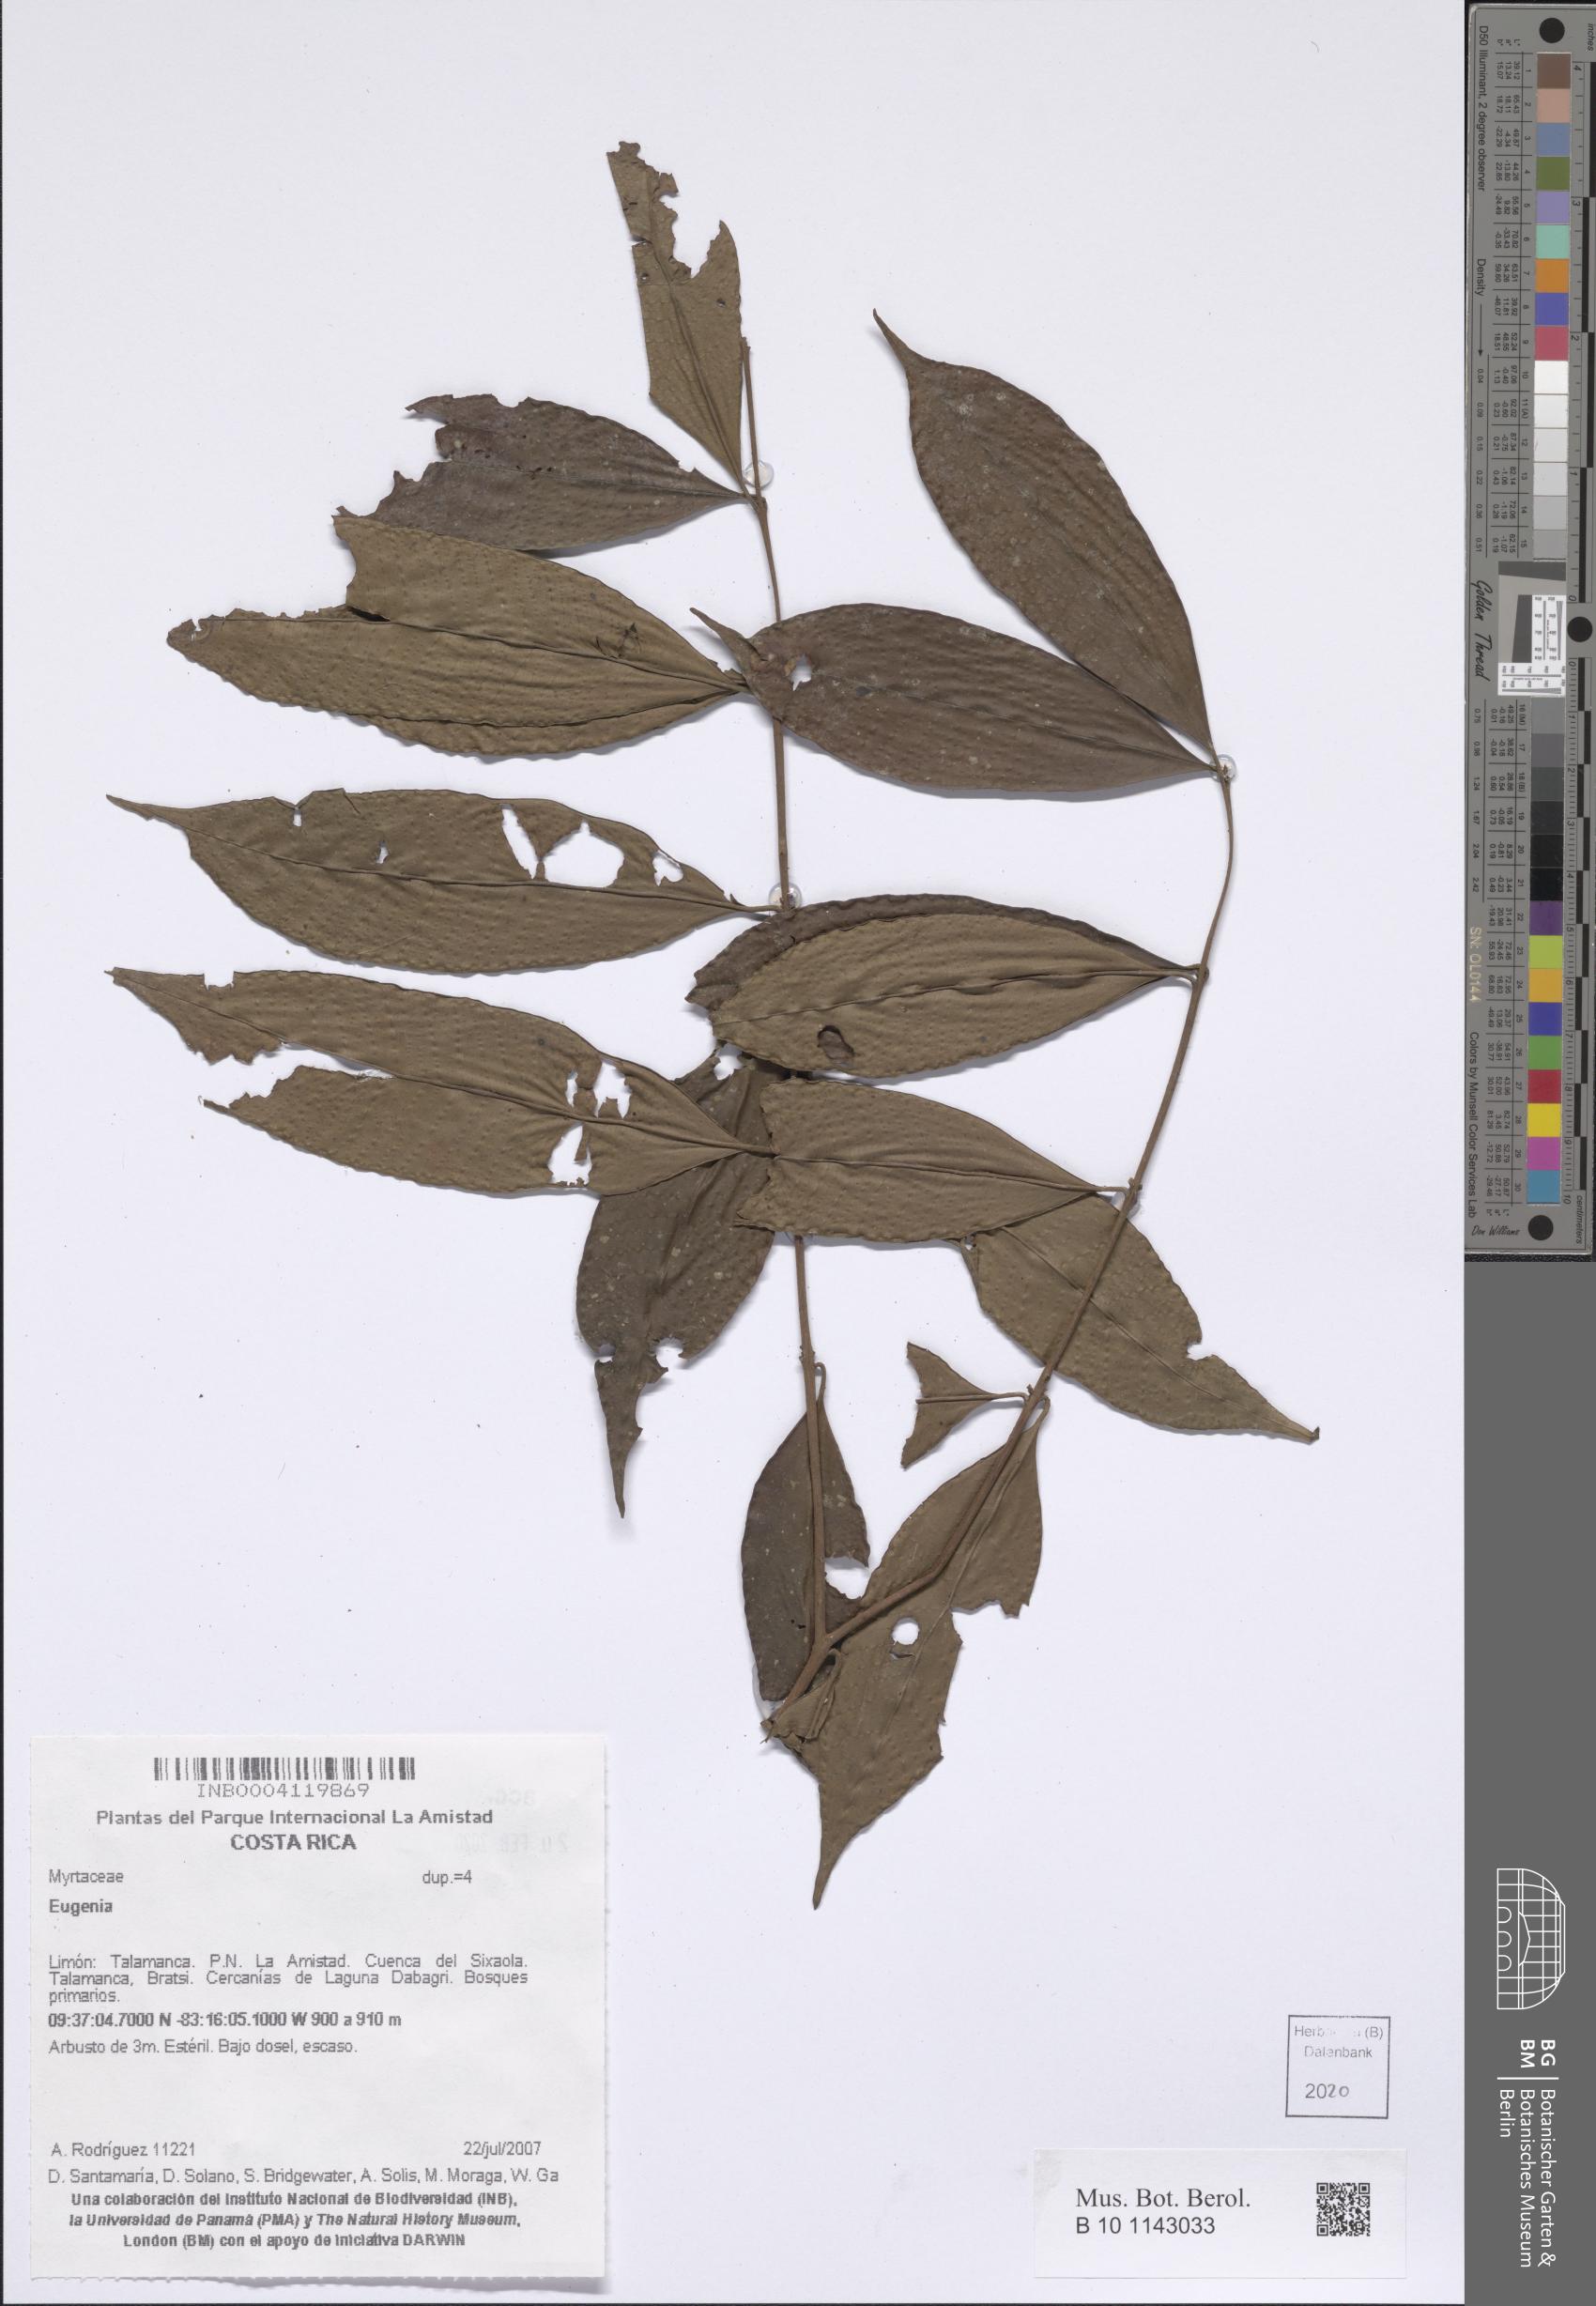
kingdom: Plantae
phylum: Tracheophyta
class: Magnoliopsida
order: Myrtales
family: Myrtaceae
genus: Eugenia
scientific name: Eugenia
